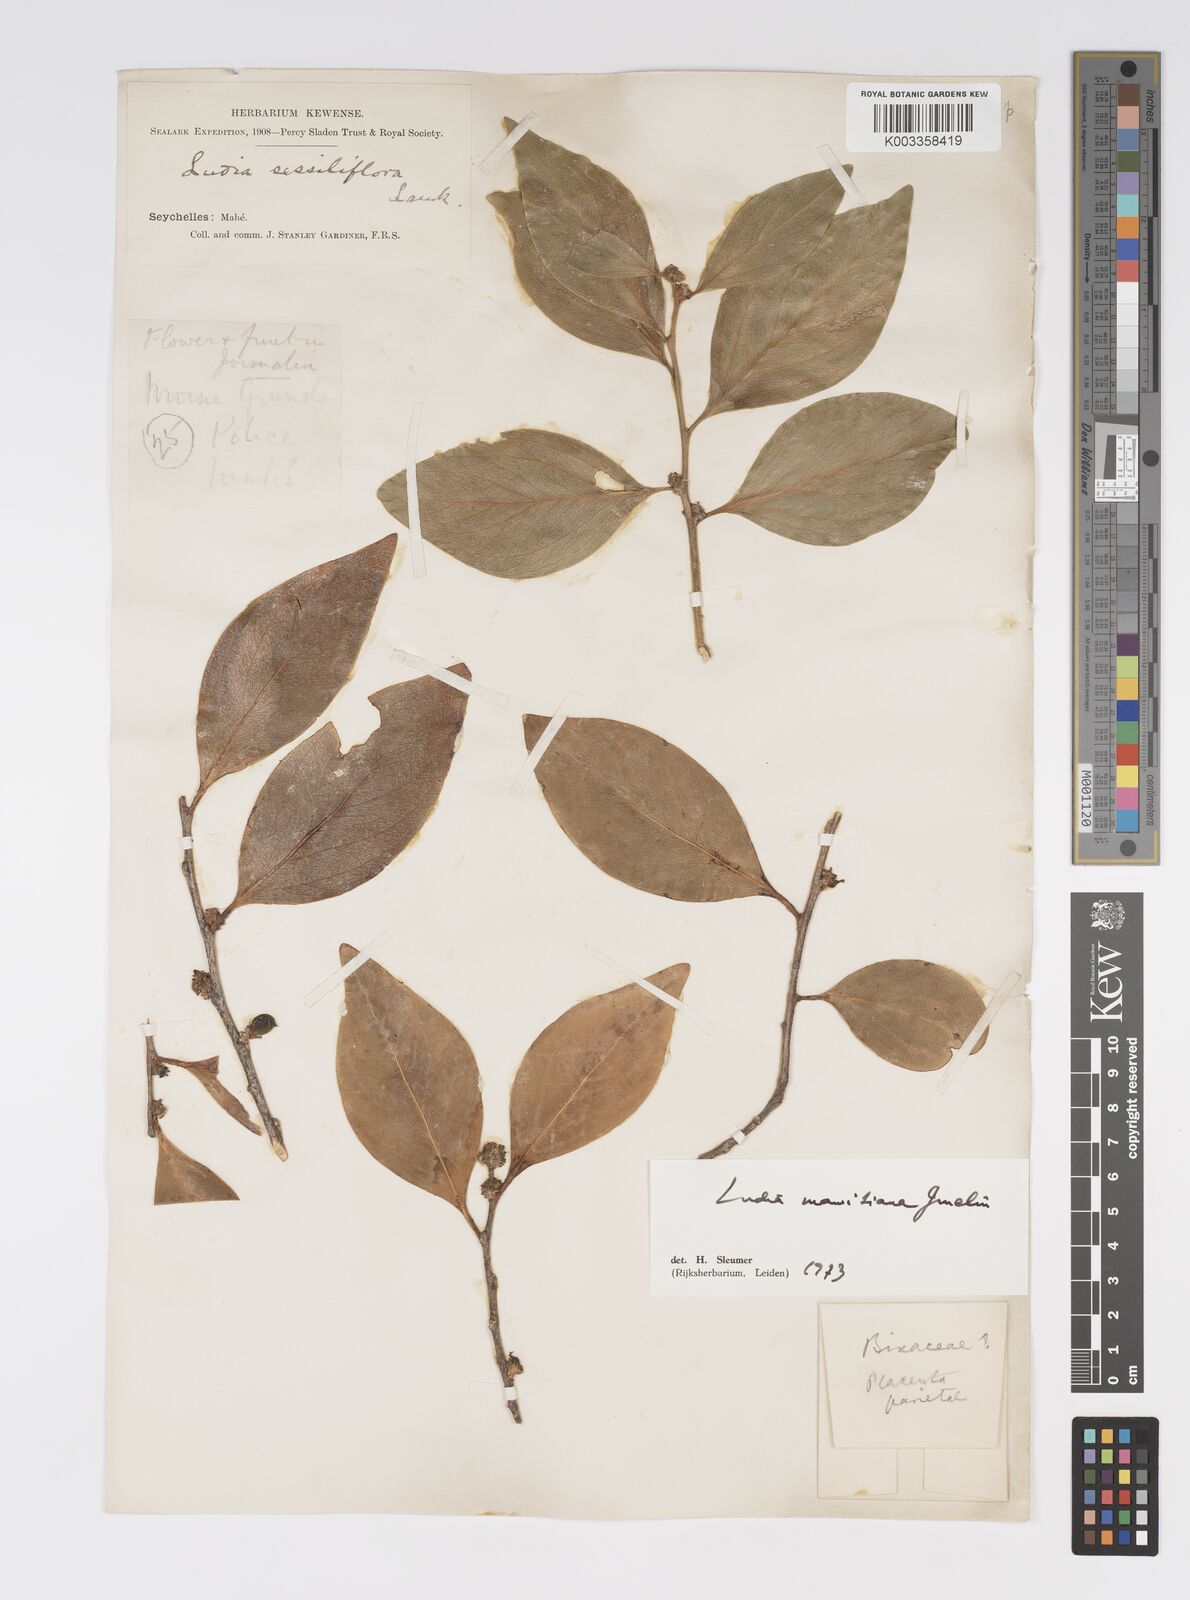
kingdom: Plantae
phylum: Tracheophyta
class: Magnoliopsida
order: Malpighiales
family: Salicaceae
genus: Ludia
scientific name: Ludia mauritiana
